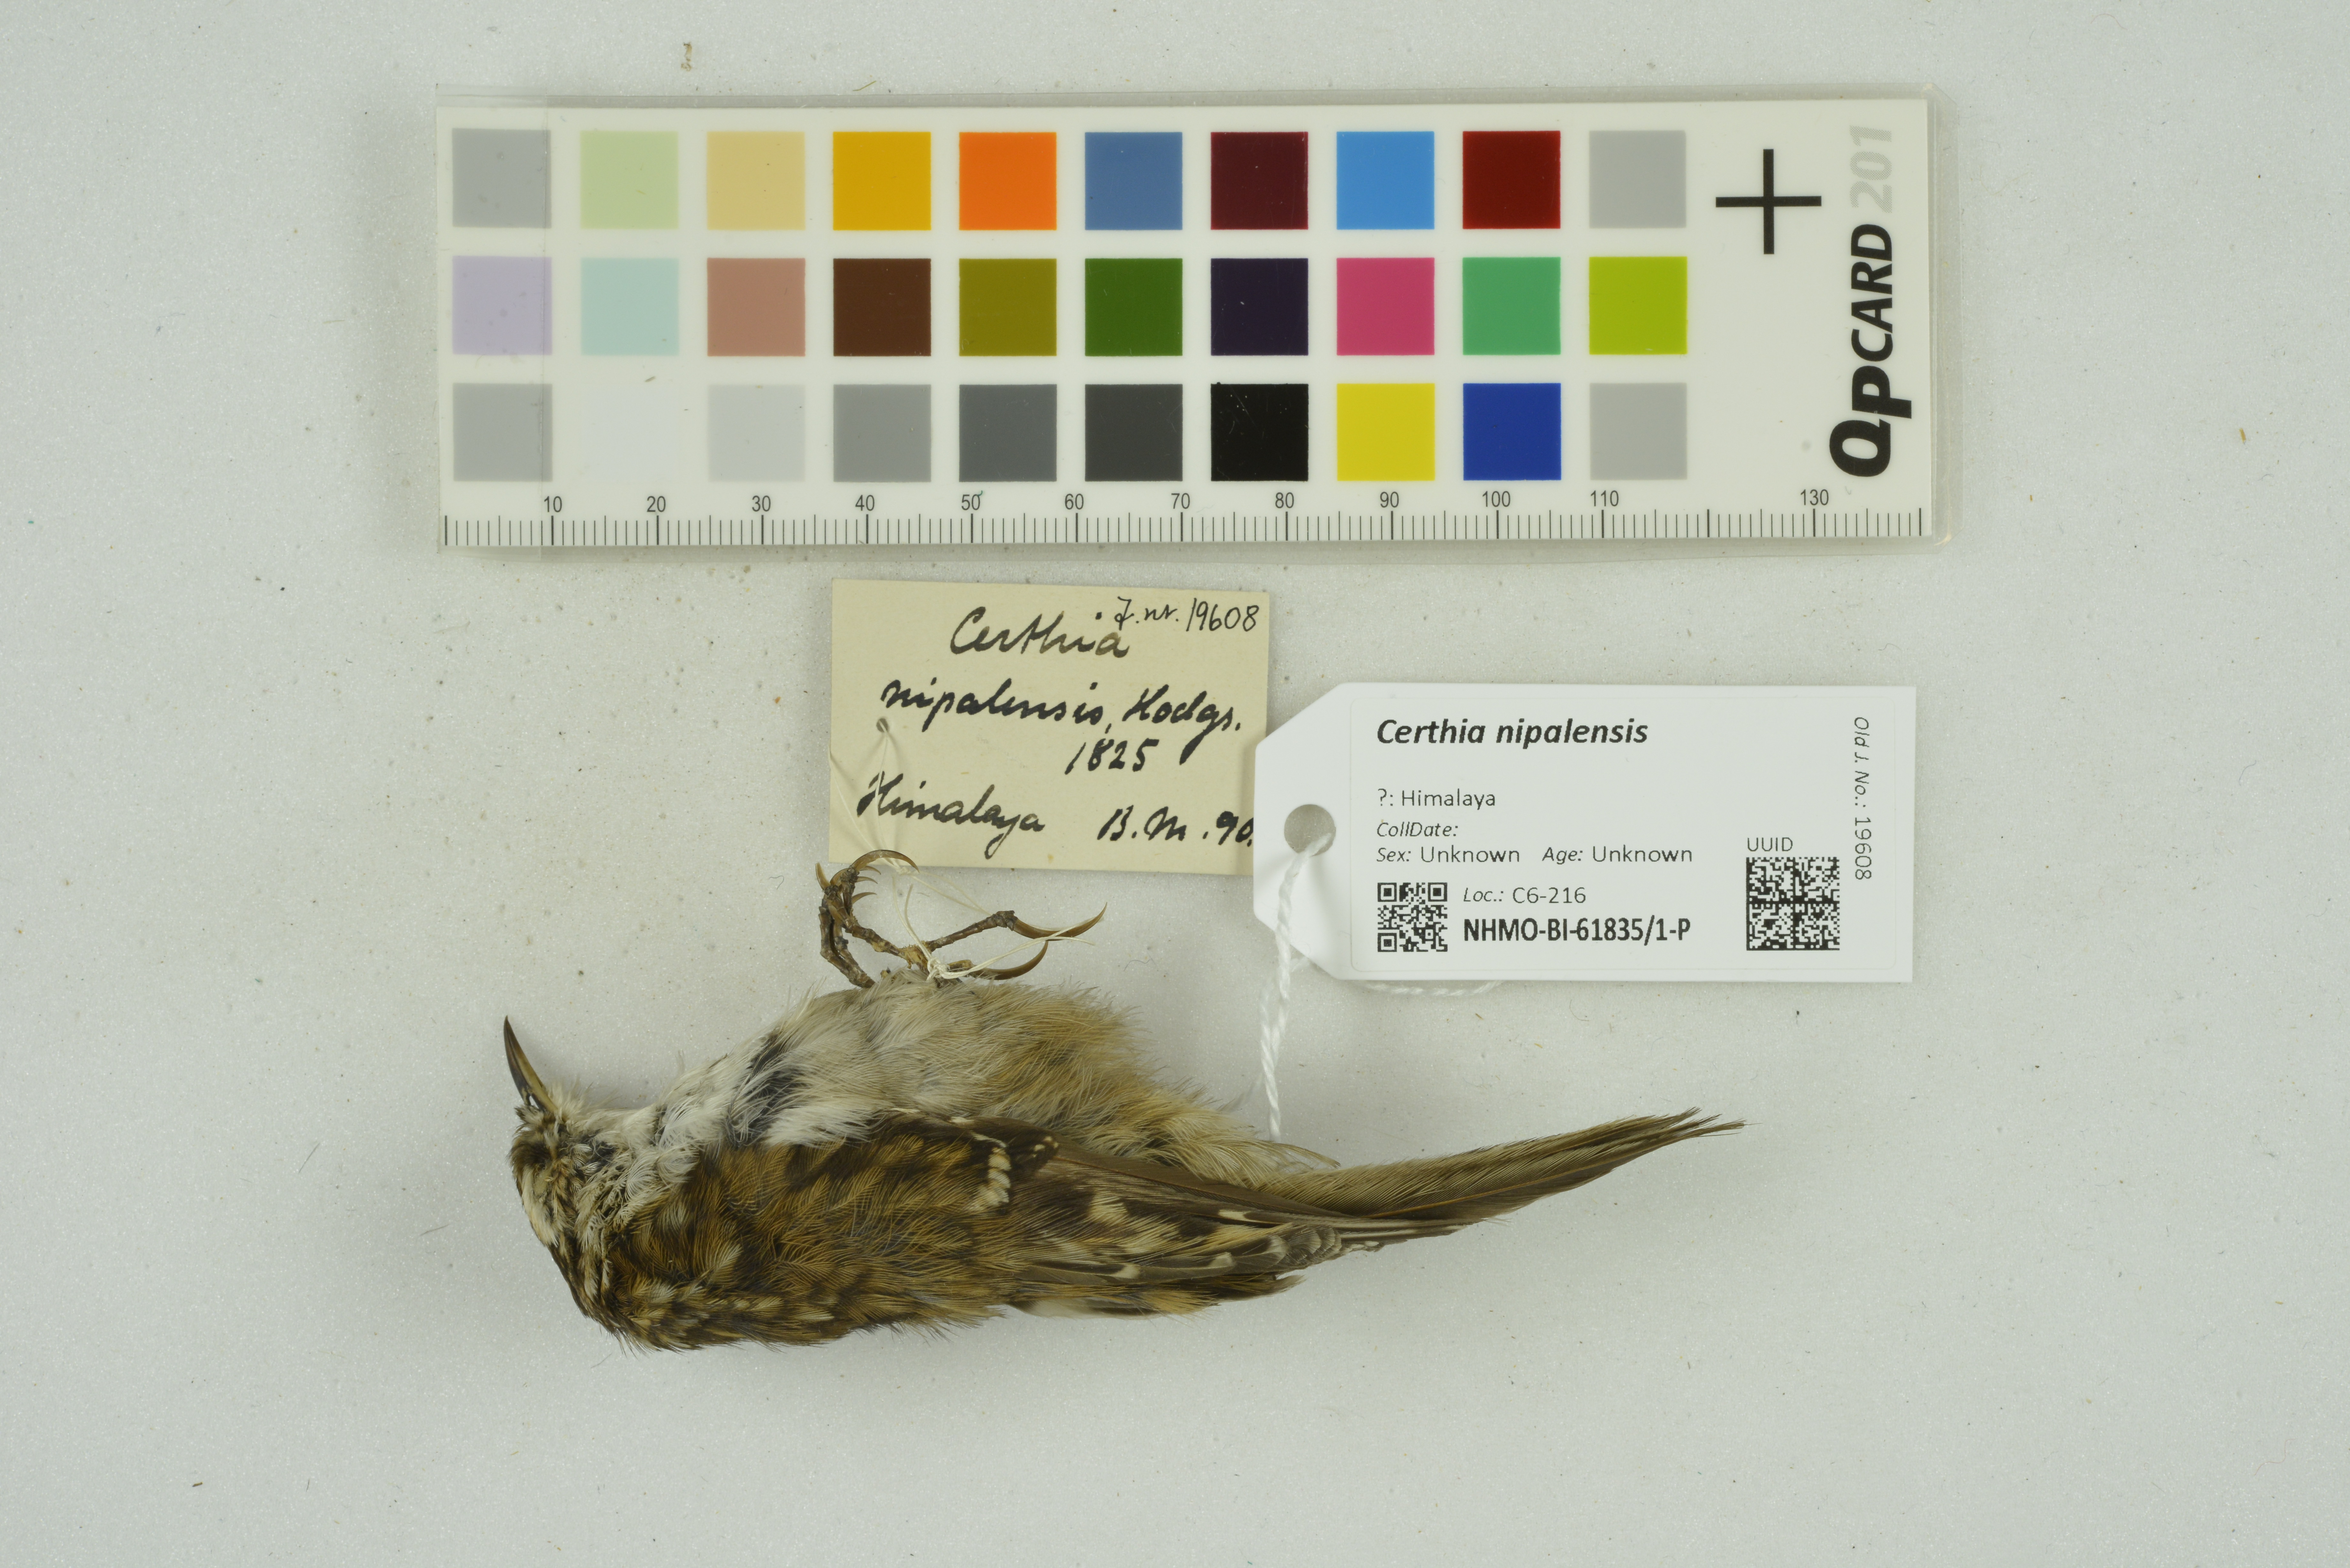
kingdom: Animalia
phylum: Chordata
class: Aves
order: Passeriformes
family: Certhiidae
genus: Certhia
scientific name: Certhia nipalensis
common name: Rusty-flanked treecreeper
